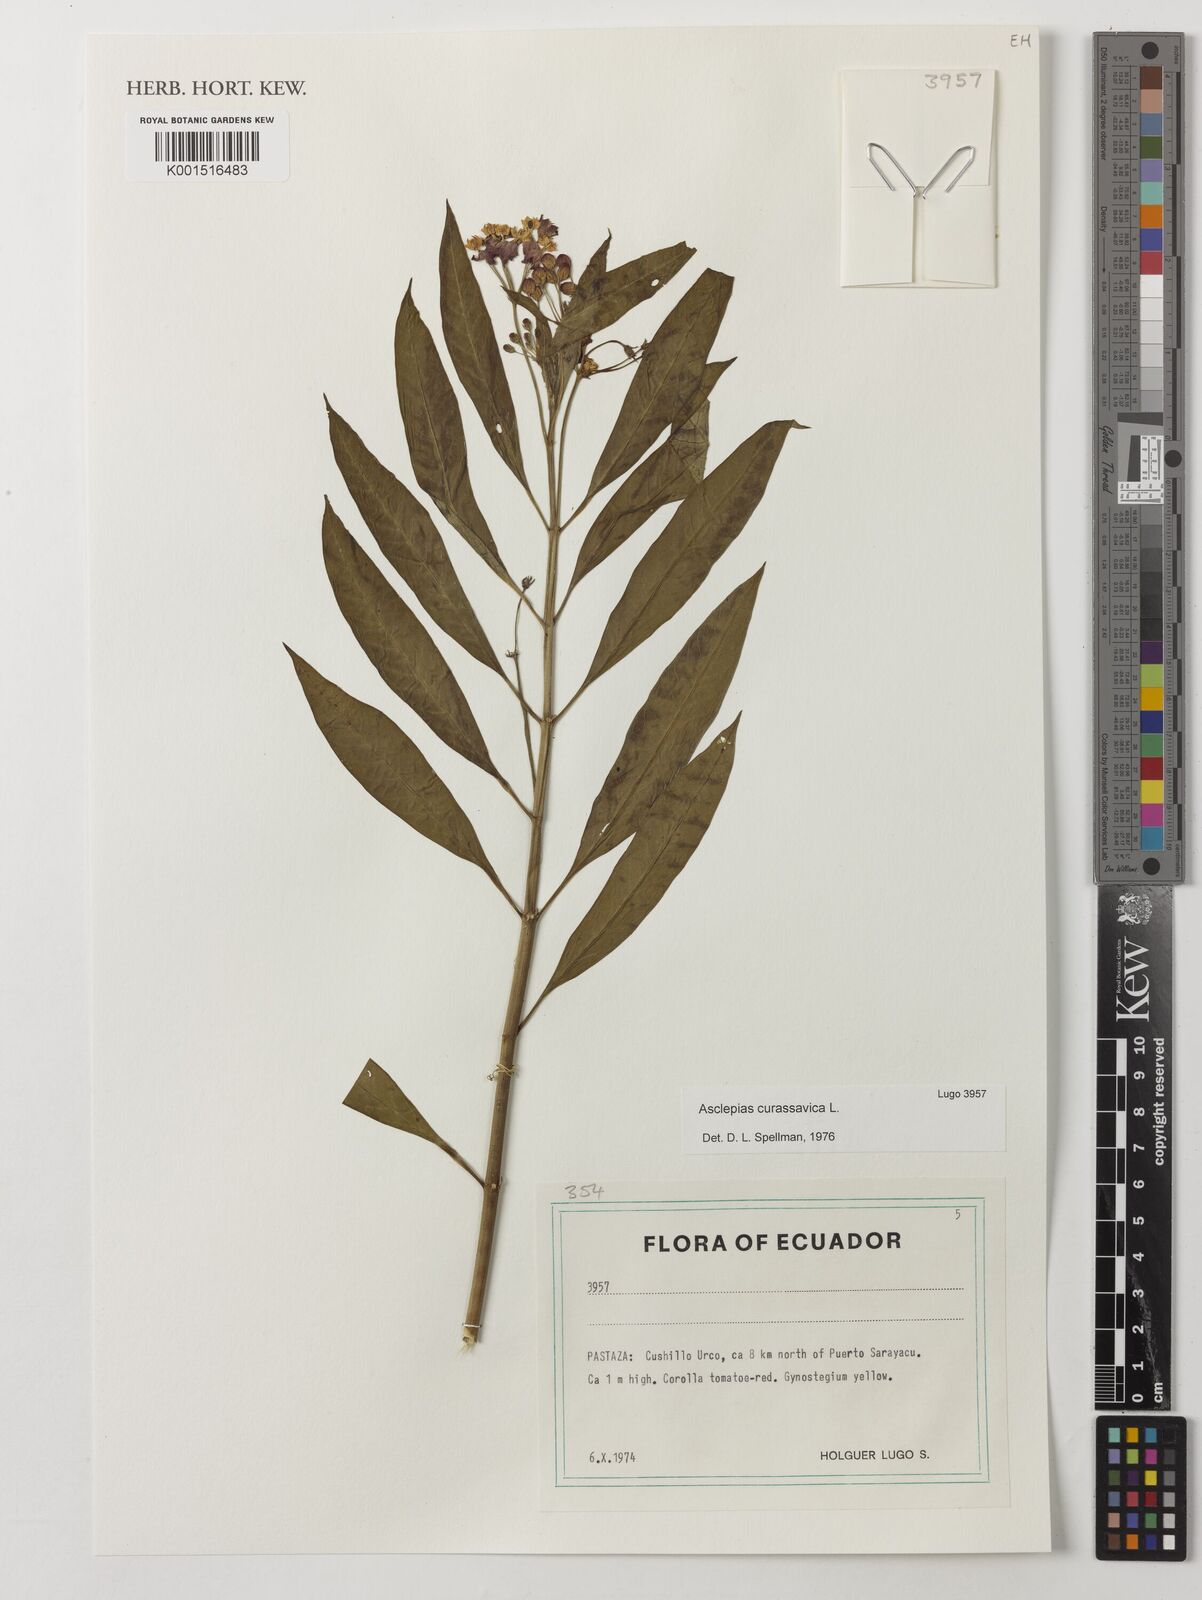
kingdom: Plantae
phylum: Tracheophyta
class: Magnoliopsida
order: Gentianales
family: Apocynaceae
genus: Asclepias
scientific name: Asclepias curassavica
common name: Bloodflower
